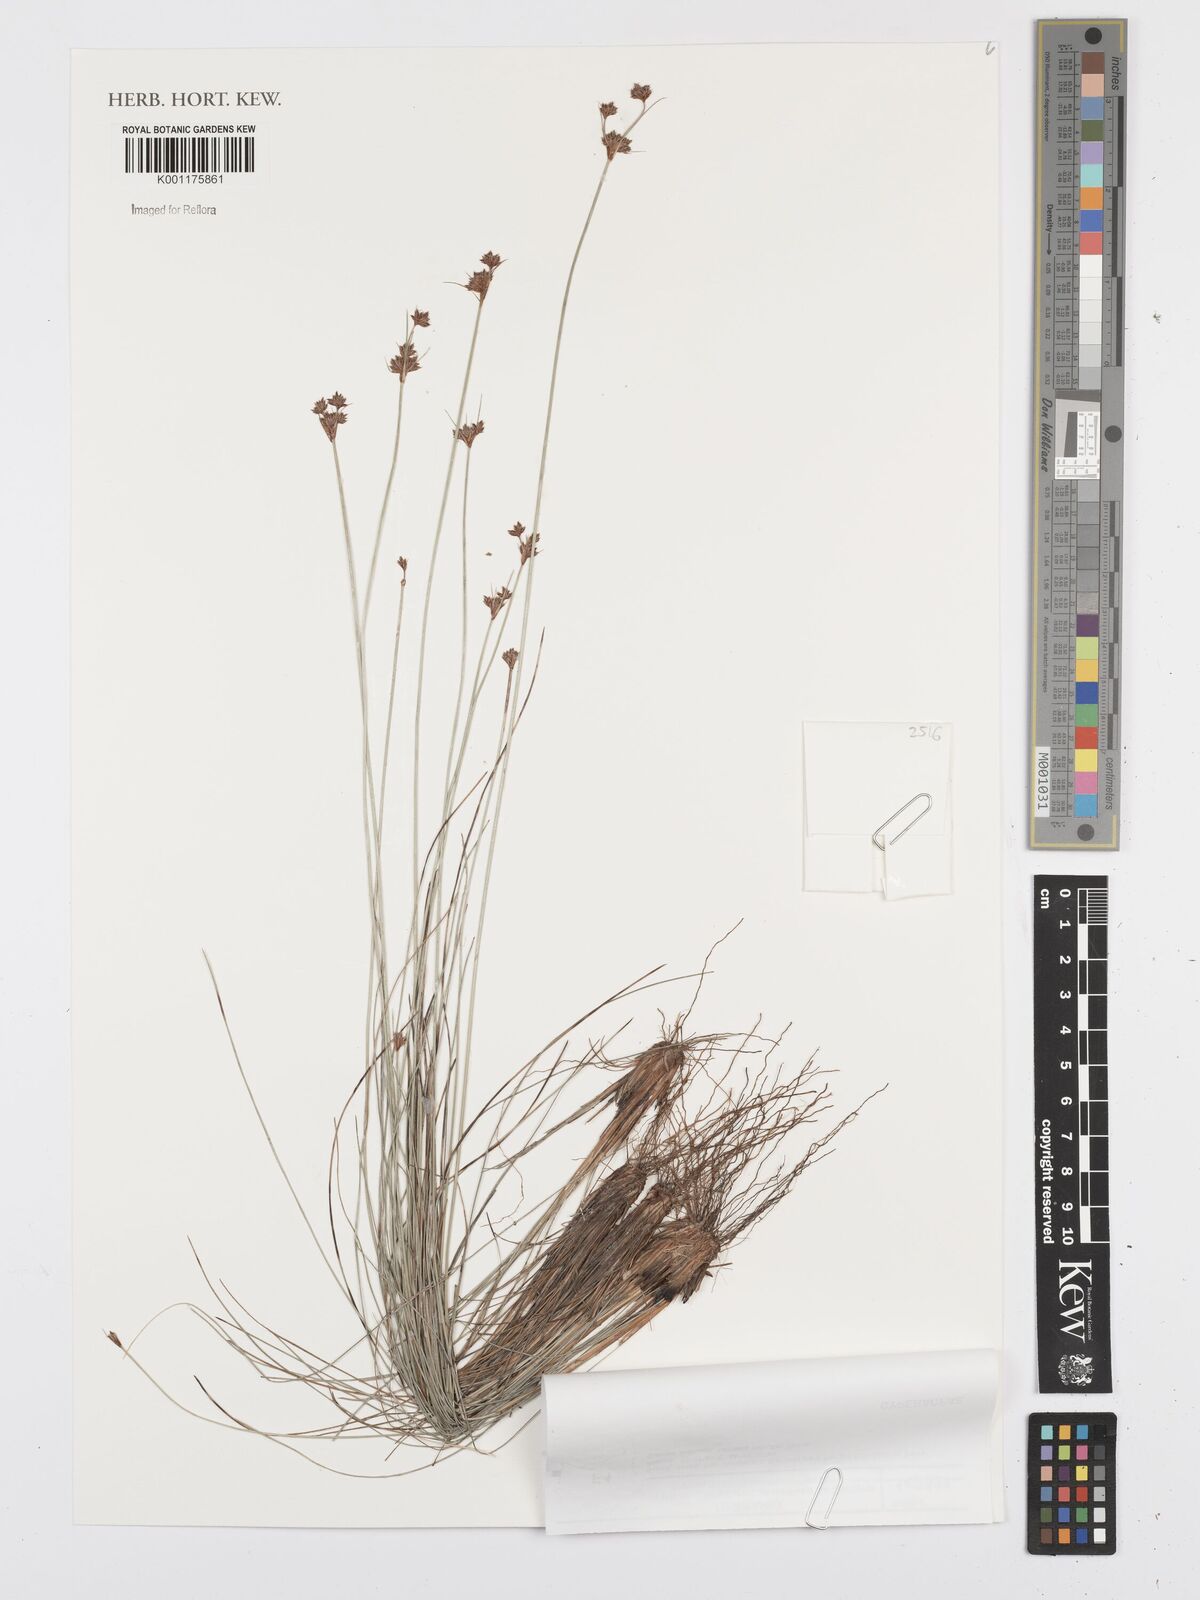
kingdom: Plantae
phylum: Tracheophyta
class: Liliopsida
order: Poales
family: Cyperaceae
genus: Bulbostylis
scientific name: Bulbostylis
